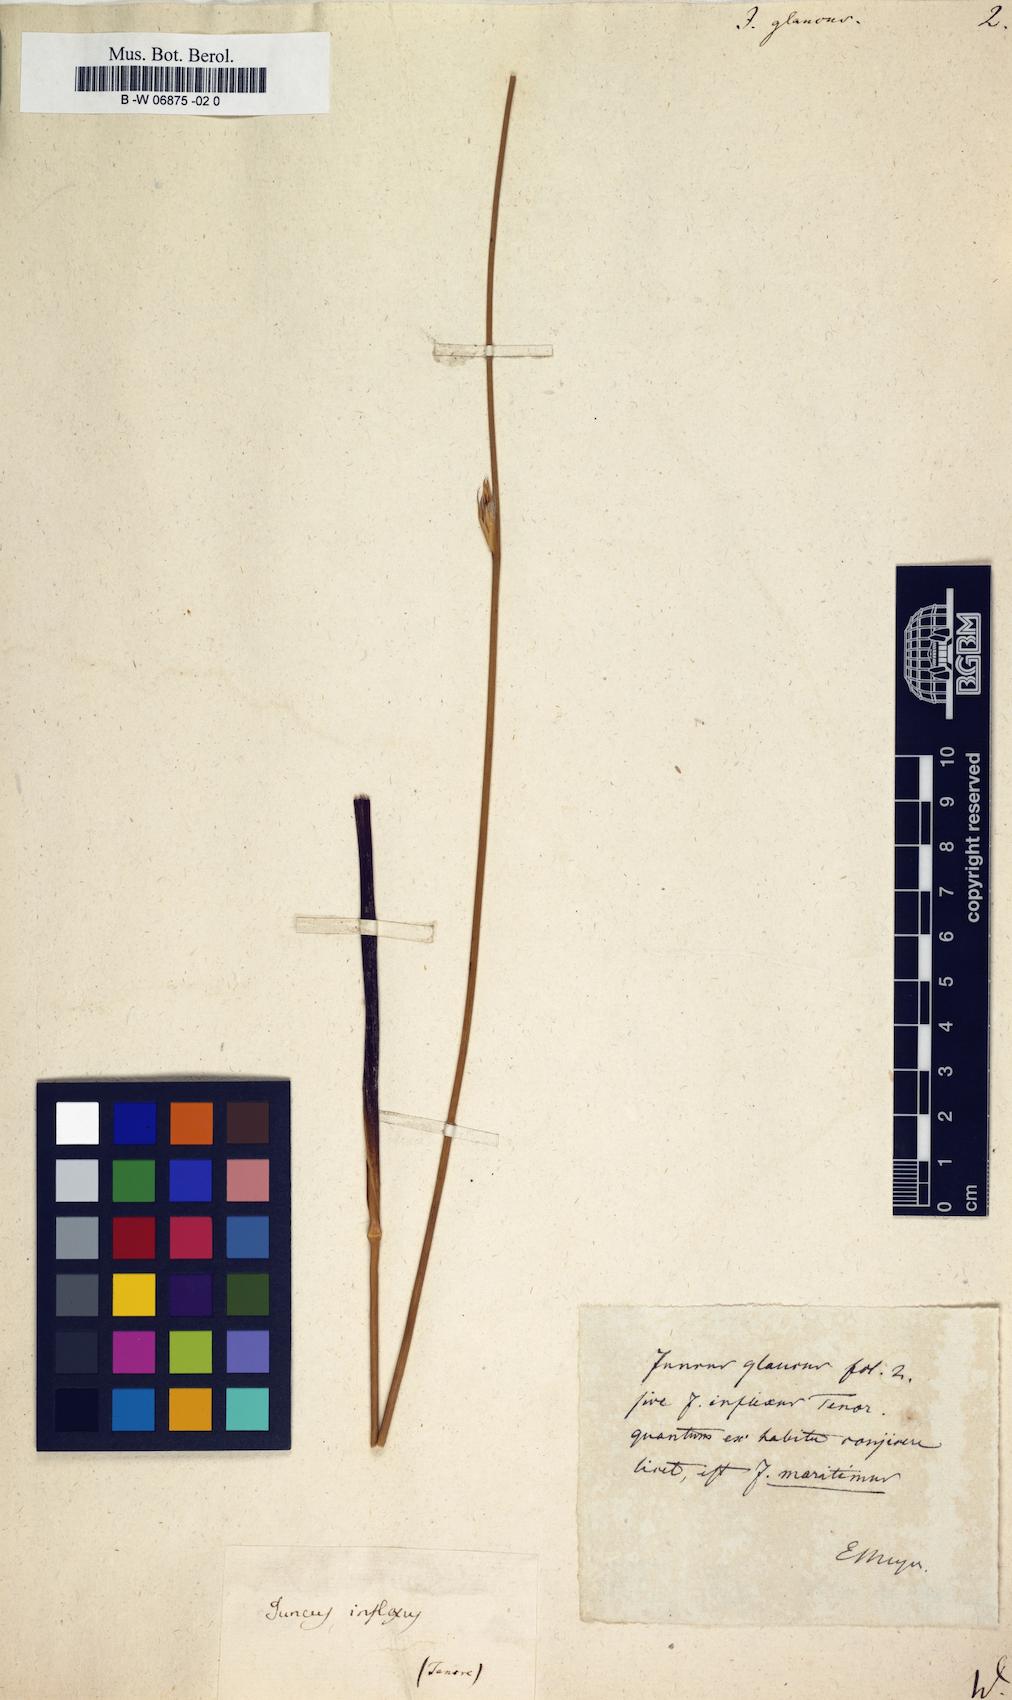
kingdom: Plantae
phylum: Tracheophyta
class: Liliopsida
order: Poales
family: Juncaceae
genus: Juncus
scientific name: Juncus glaucus
